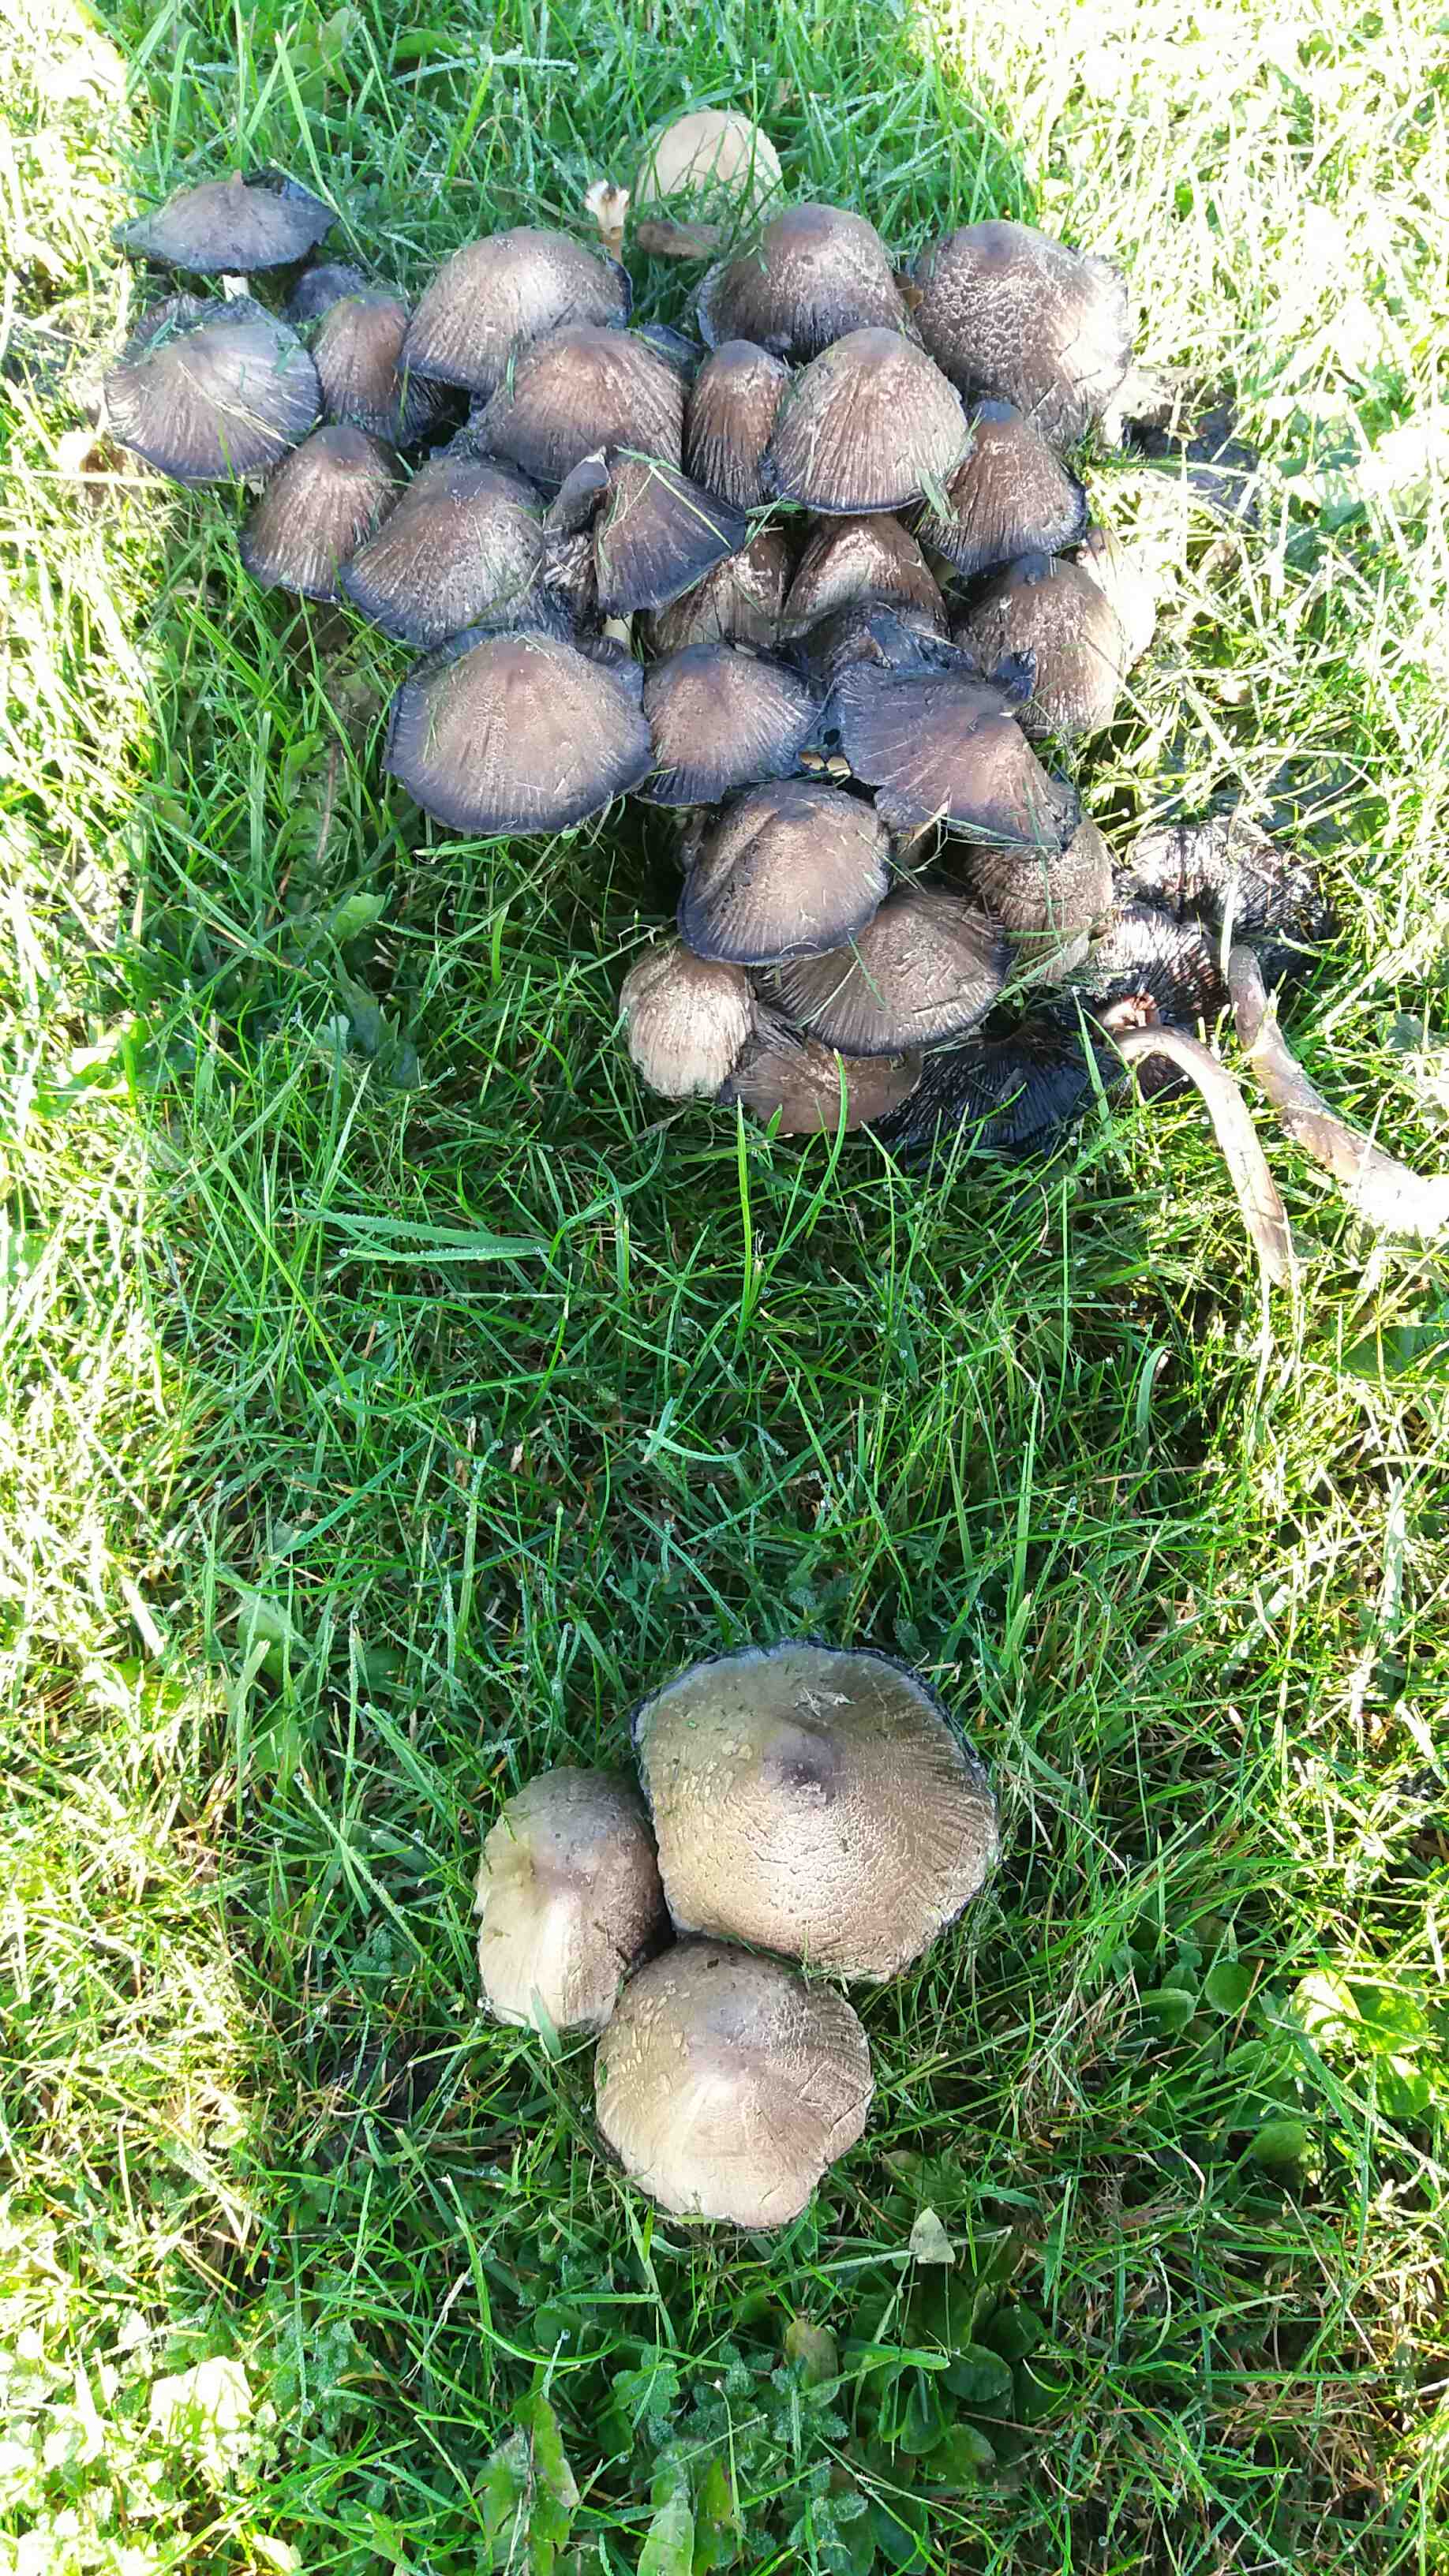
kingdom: Fungi
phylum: Basidiomycota
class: Agaricomycetes
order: Agaricales
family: Psathyrellaceae
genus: Coprinopsis
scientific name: Coprinopsis atramentaria
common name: almindelig blækhat
